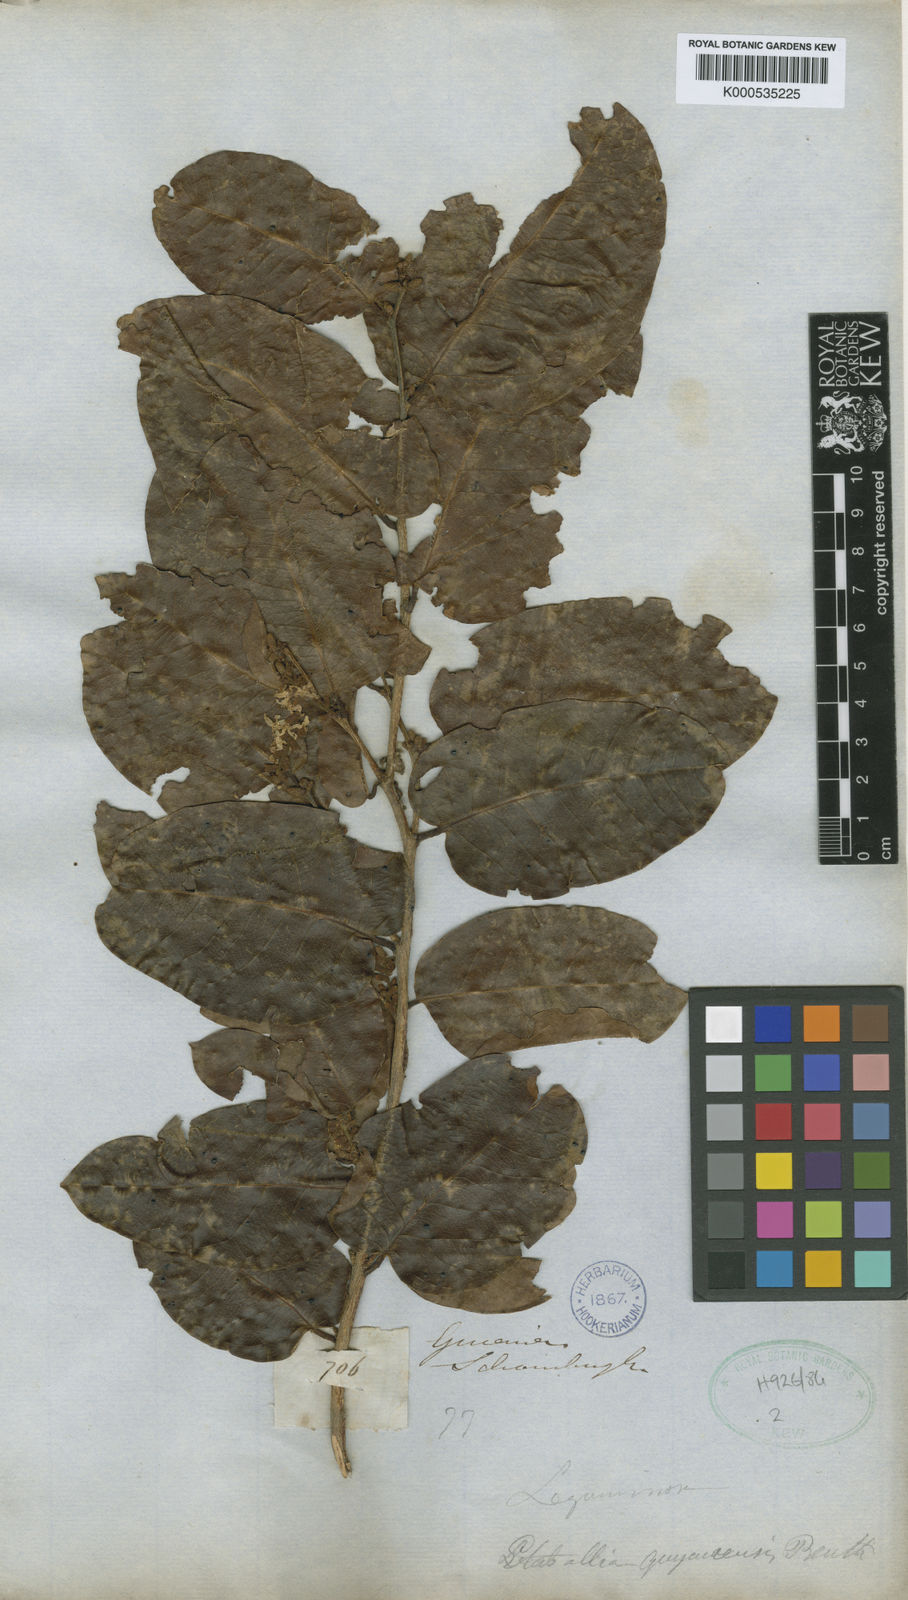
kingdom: Plantae
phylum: Tracheophyta
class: Magnoliopsida
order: Fabales
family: Fabaceae
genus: Pterocarpus
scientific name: Pterocarpus dubius
